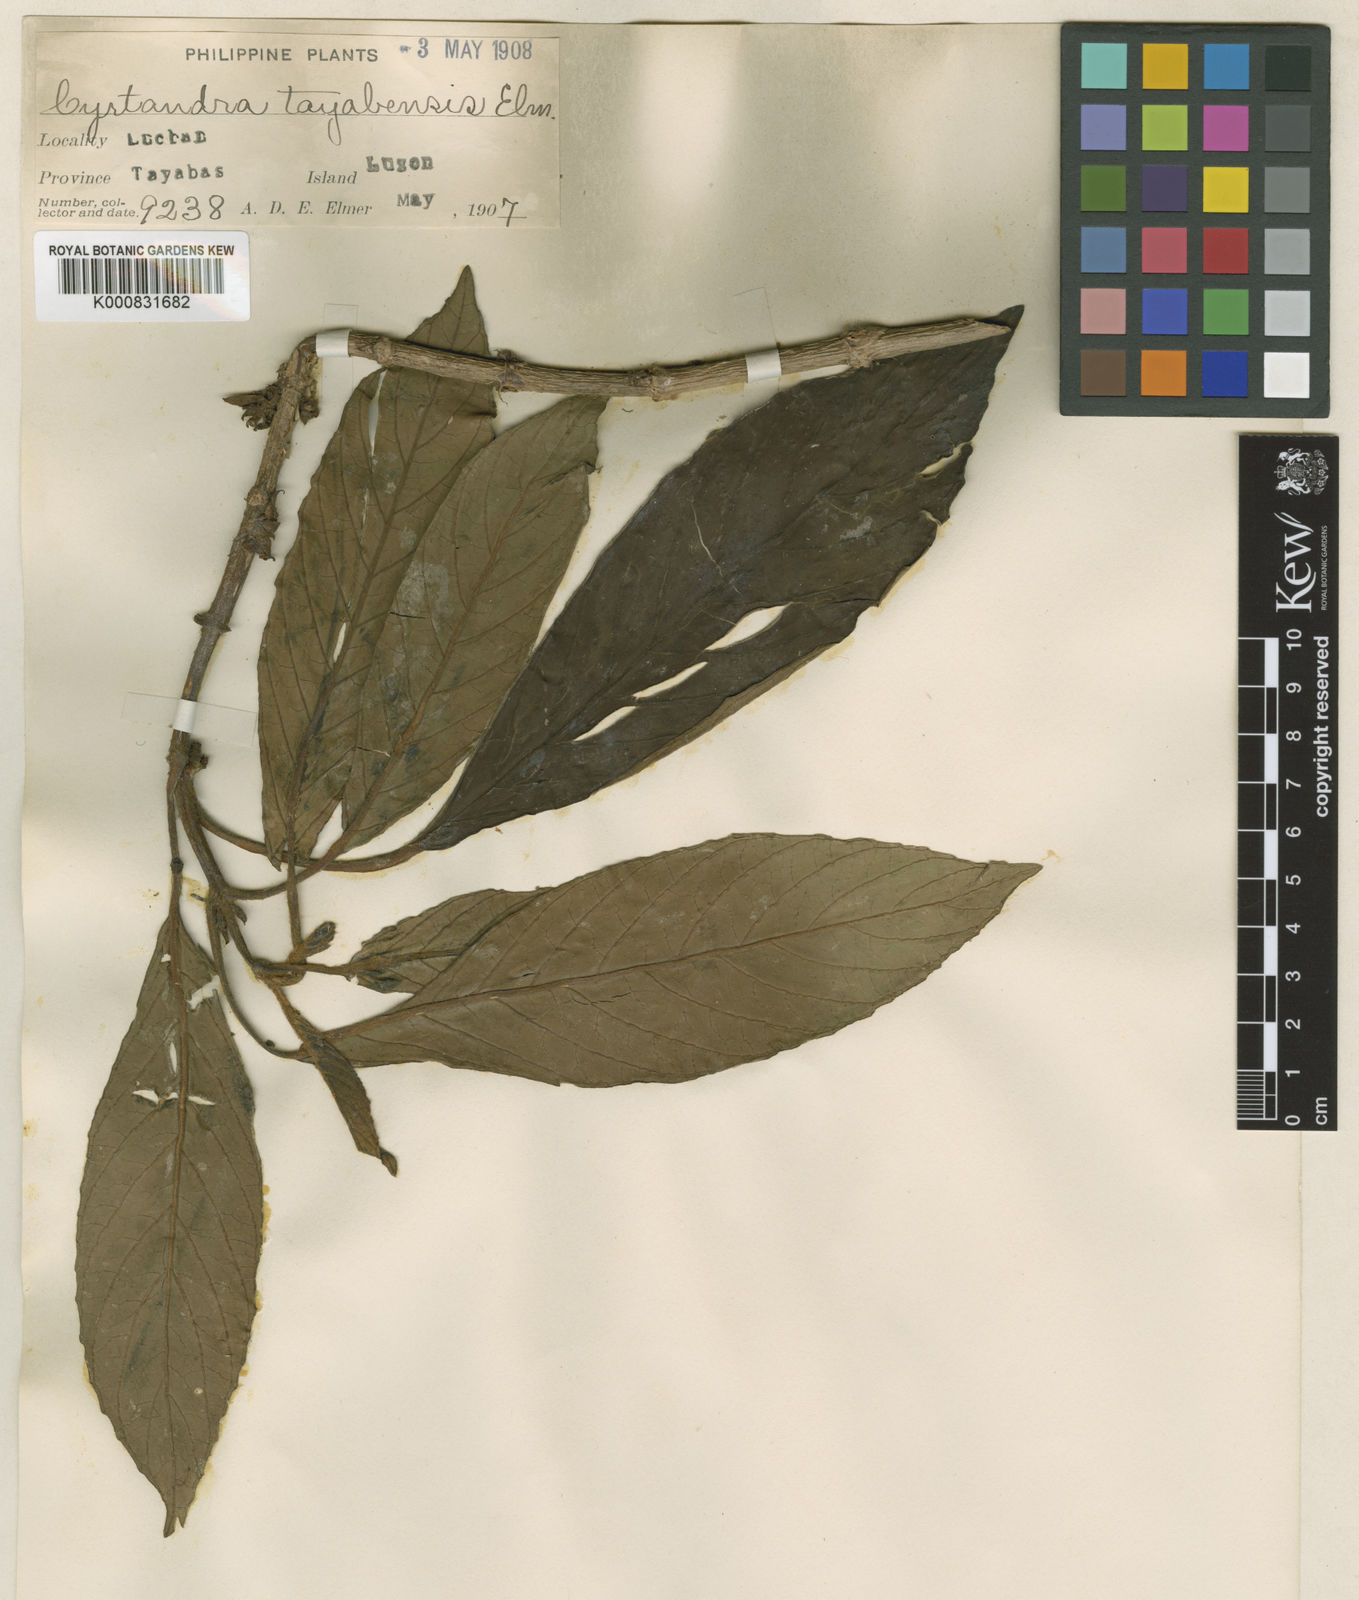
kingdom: Plantae
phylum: Tracheophyta
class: Magnoliopsida
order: Lamiales
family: Gesneriaceae
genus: Cyrtandra
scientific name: Cyrtandra tayabensis
